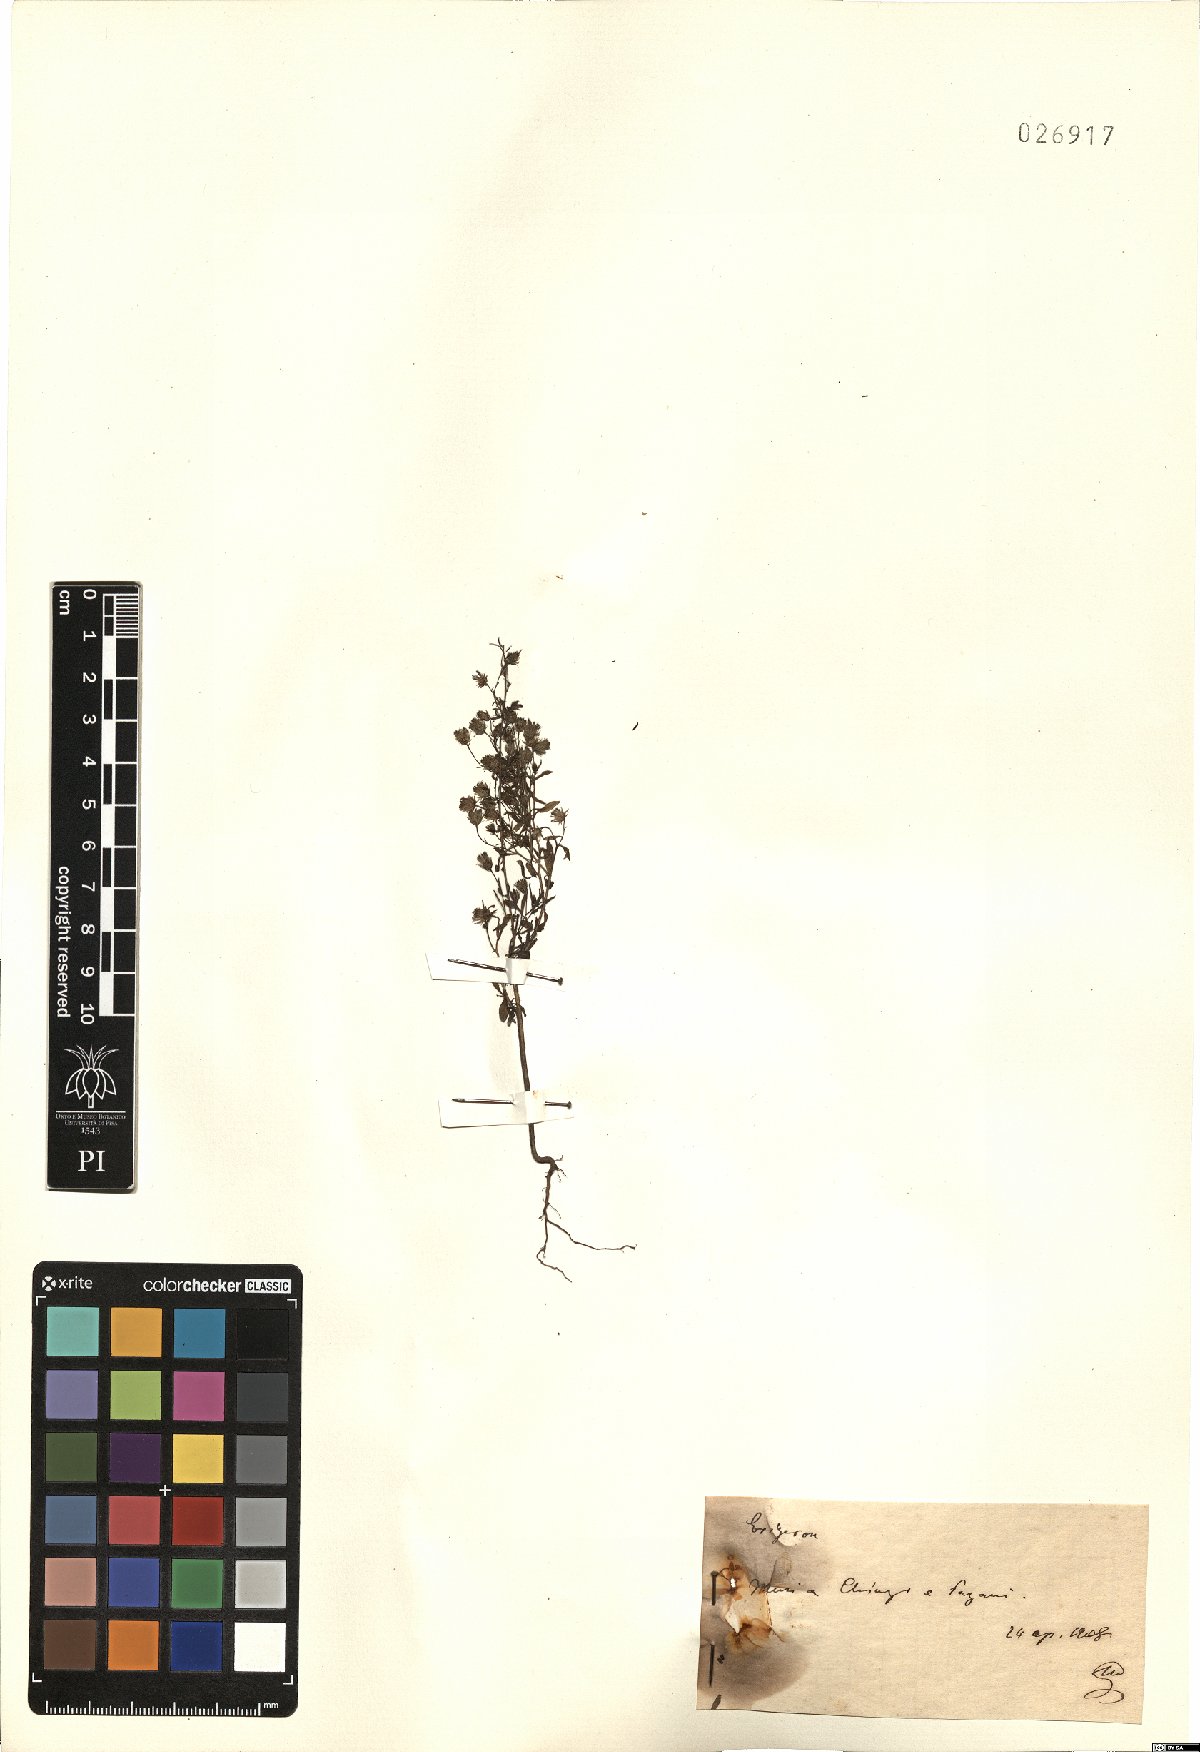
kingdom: Plantae
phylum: Tracheophyta
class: Magnoliopsida
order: Asterales
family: Asteraceae
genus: Erigeron
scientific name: Erigeron
